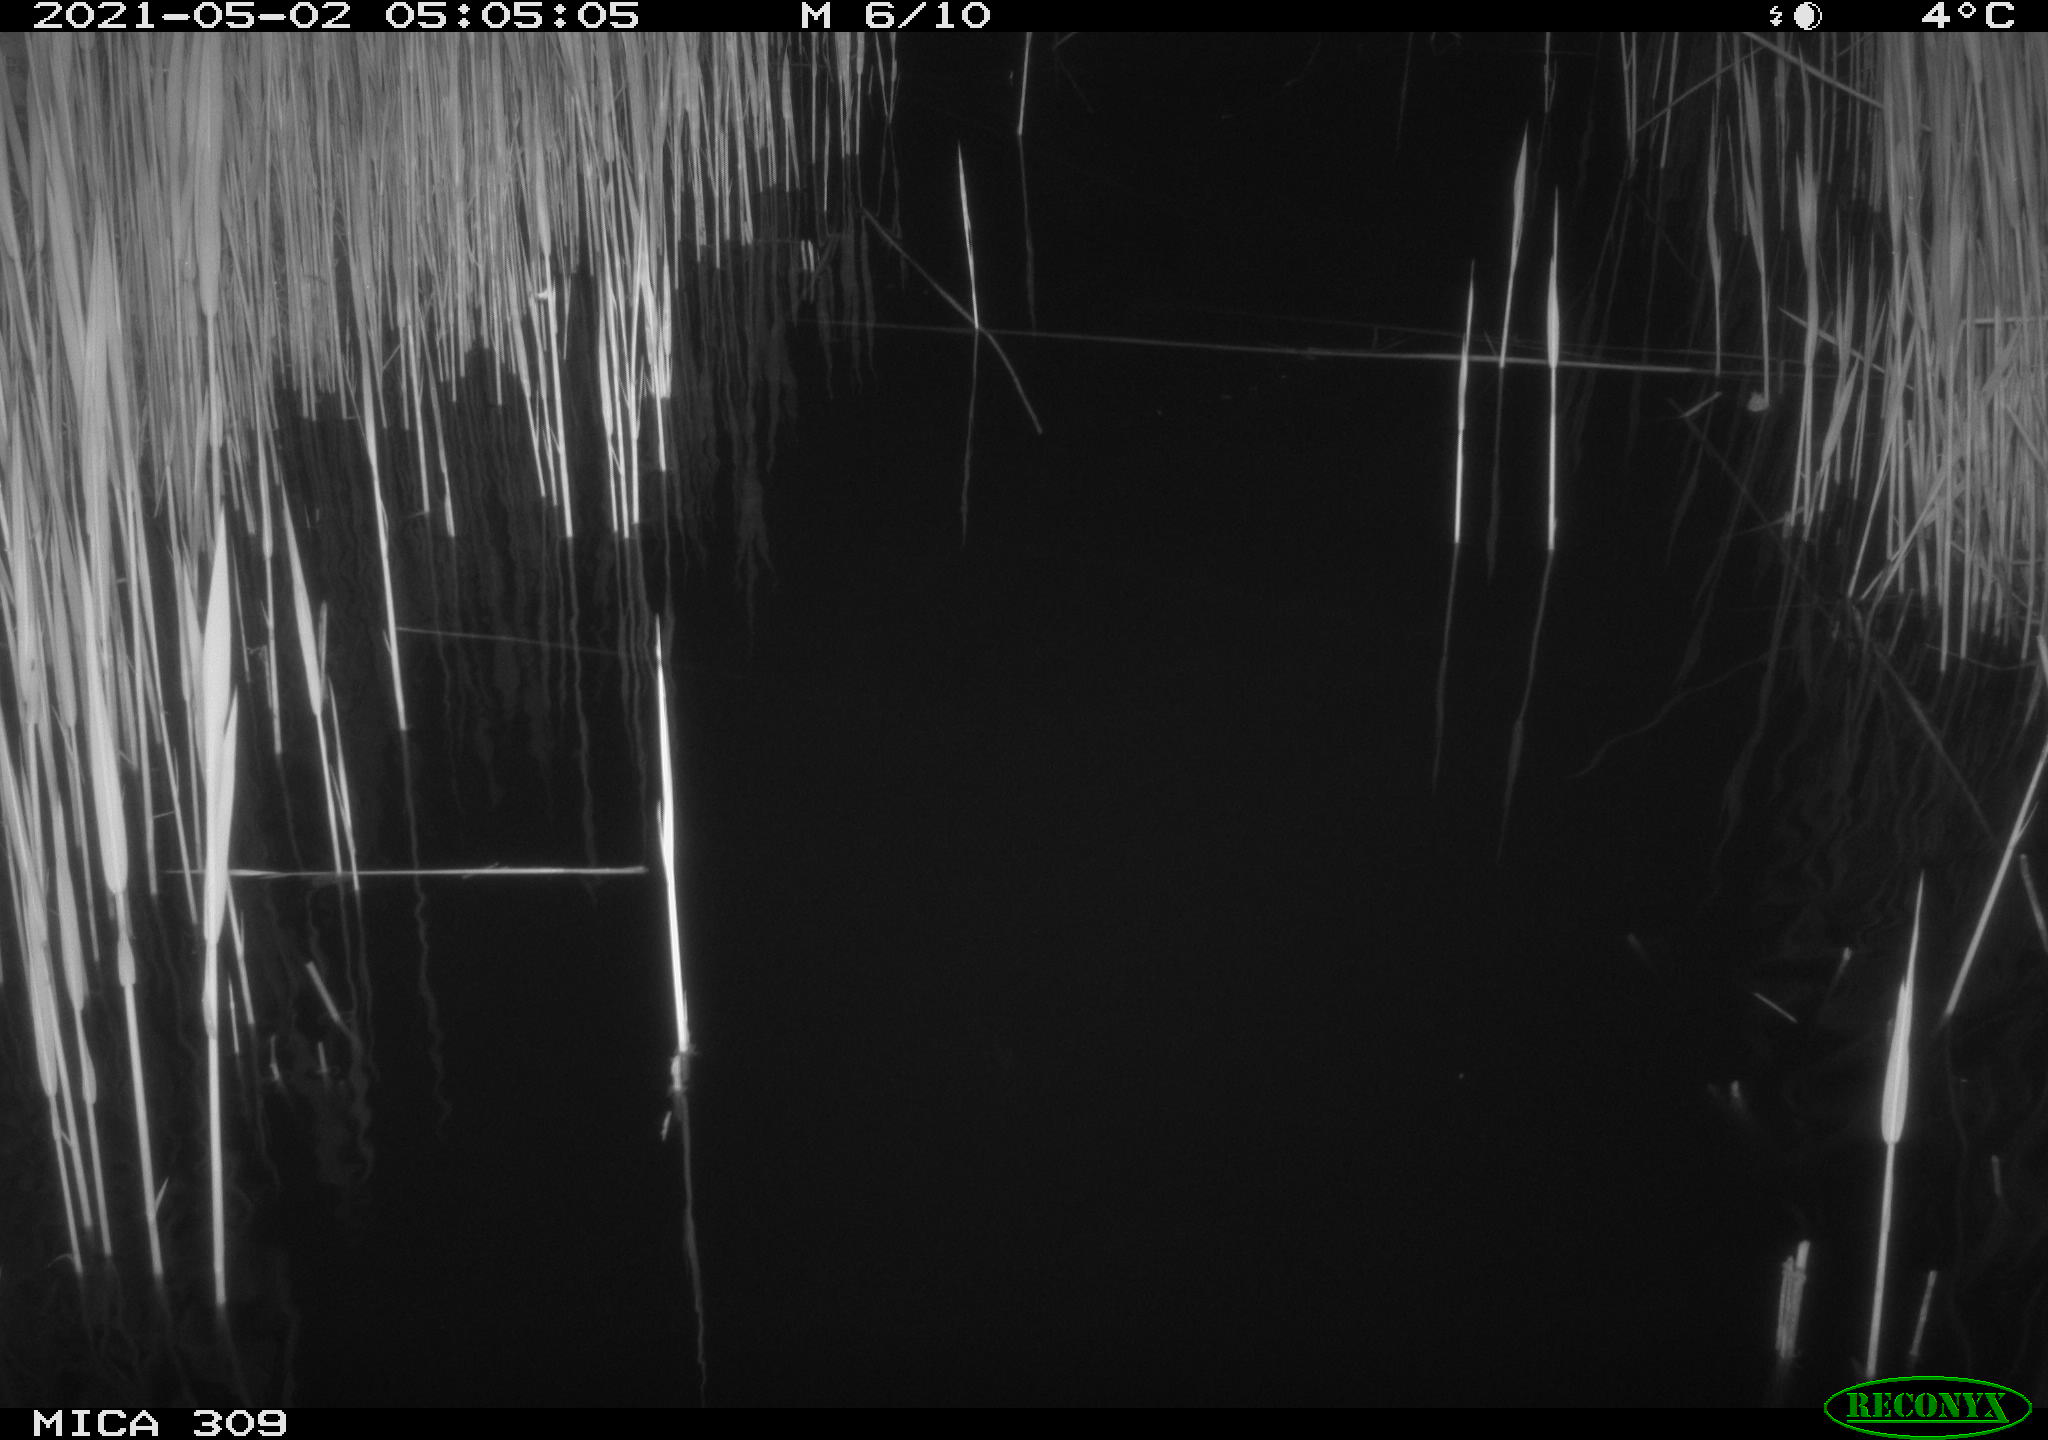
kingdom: Animalia
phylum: Chordata
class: Aves
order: Anseriformes
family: Anatidae
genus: Anas
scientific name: Anas platyrhynchos
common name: Mallard
